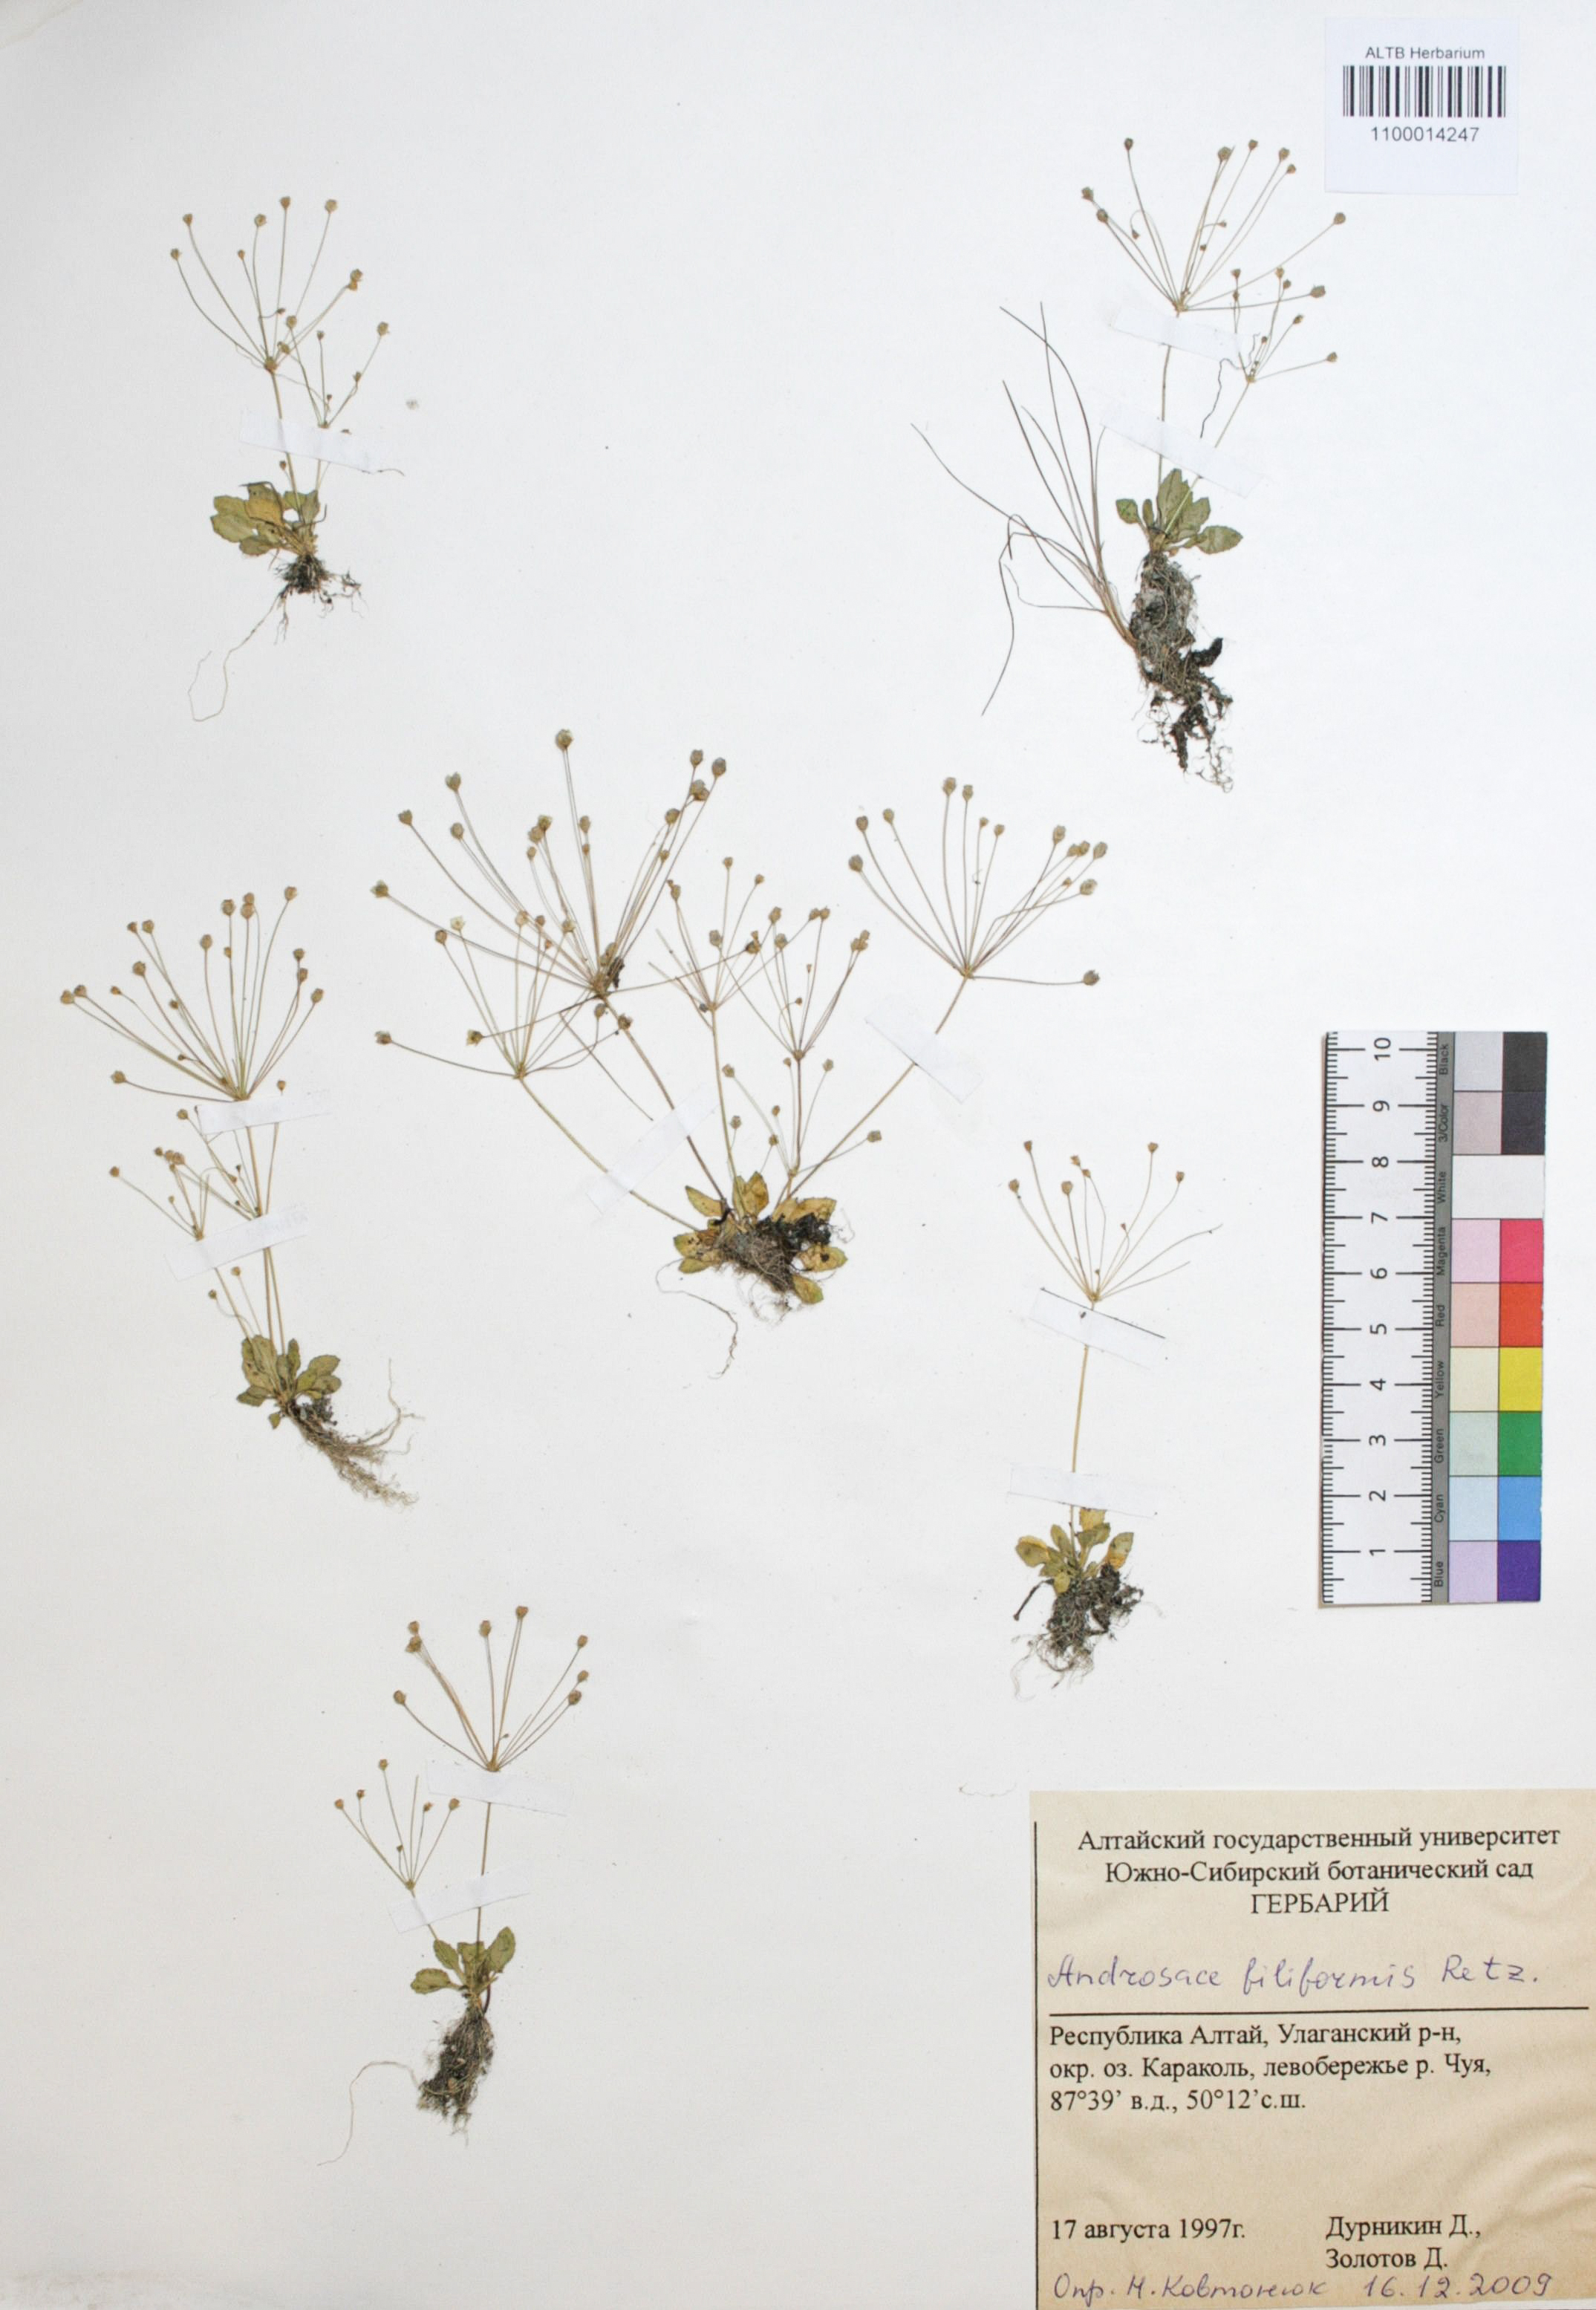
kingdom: Plantae
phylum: Tracheophyta
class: Magnoliopsida
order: Ericales
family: Primulaceae
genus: Androsace
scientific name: Androsace filiformis
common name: Filiform rock jasmine
